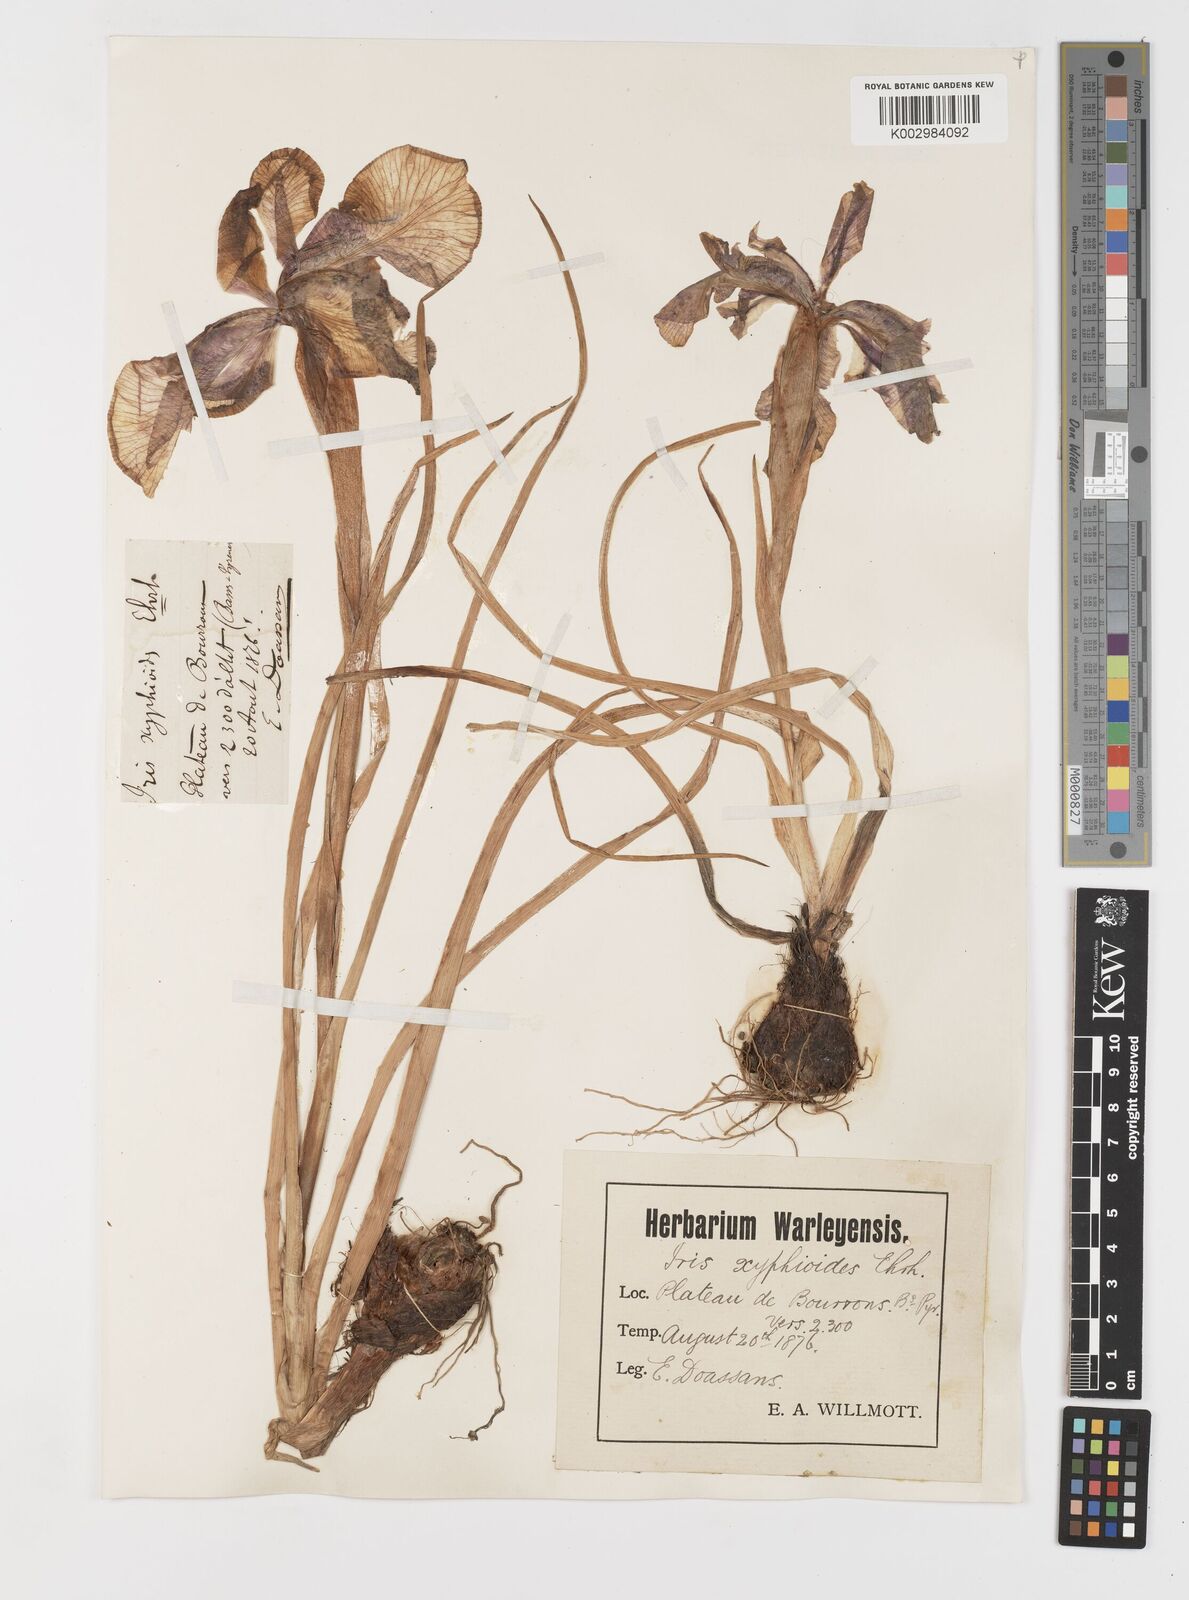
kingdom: Plantae
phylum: Tracheophyta
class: Liliopsida
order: Asparagales
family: Iridaceae
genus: Iris
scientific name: Iris jacquinii
